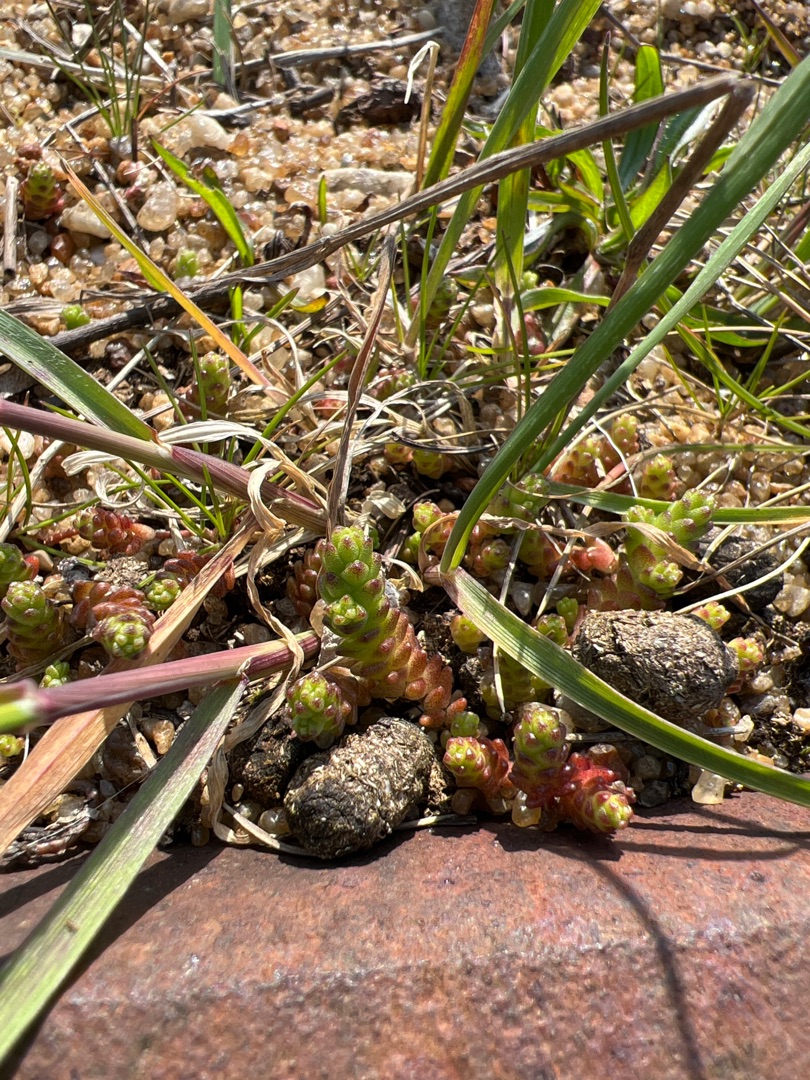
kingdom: Plantae
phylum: Tracheophyta
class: Magnoliopsida
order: Saxifragales
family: Crassulaceae
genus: Sedum
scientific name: Sedum acre
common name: Bidende stenurt
